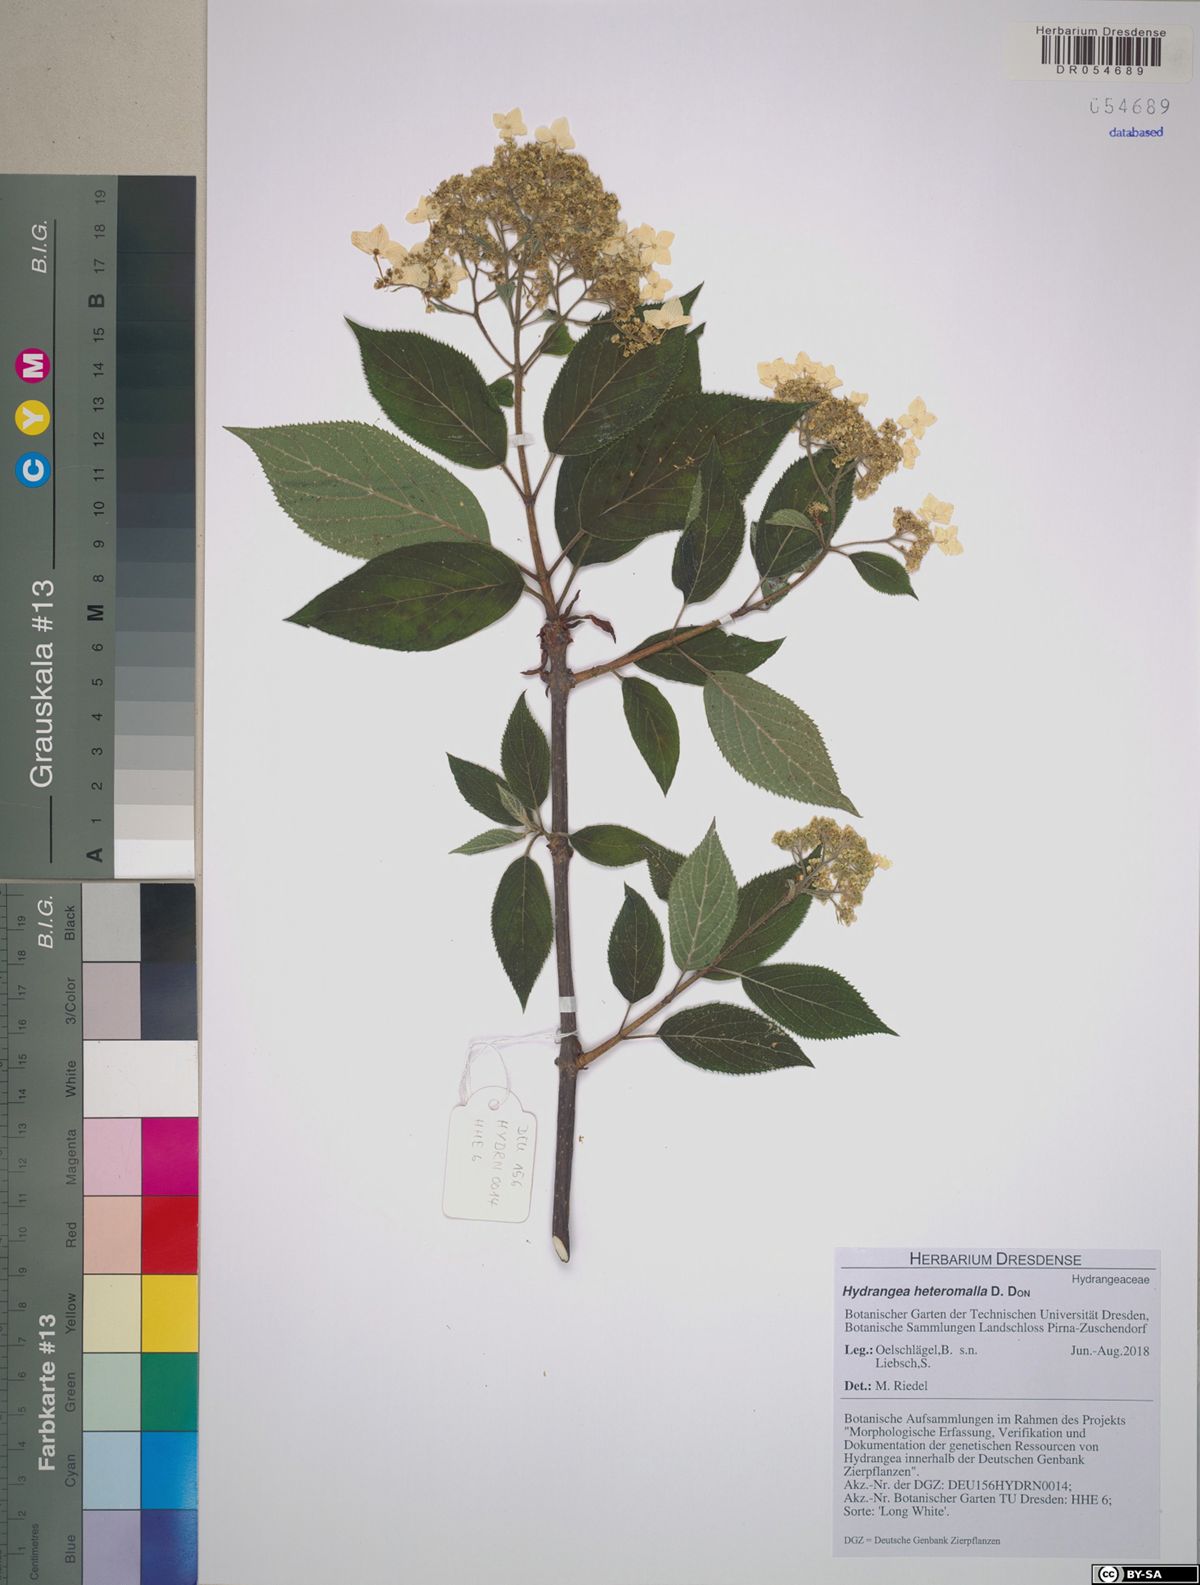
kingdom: Plantae
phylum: Tracheophyta
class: Magnoliopsida
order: Cornales
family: Hydrangeaceae
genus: Hydrangea
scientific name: Hydrangea heteromalla
